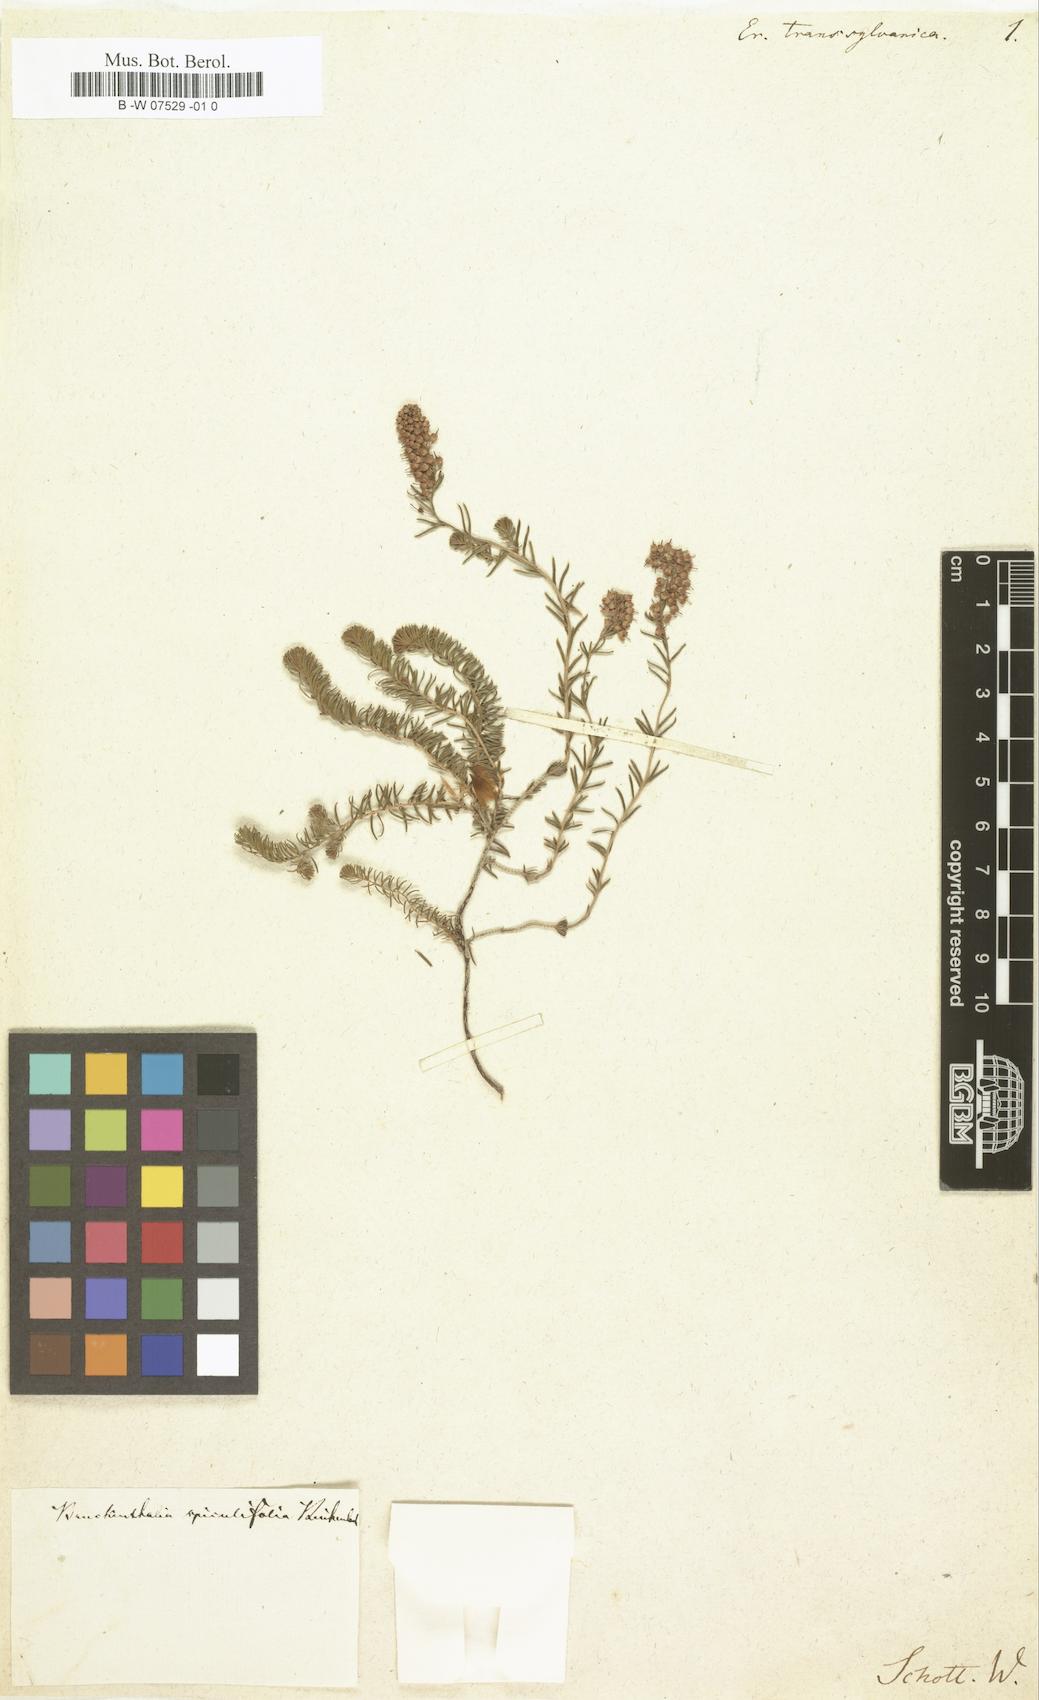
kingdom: Plantae
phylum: Tracheophyta
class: Magnoliopsida
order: Ericales
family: Ericaceae
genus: Erica
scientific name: Erica spiculifolia
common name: Spike heath
